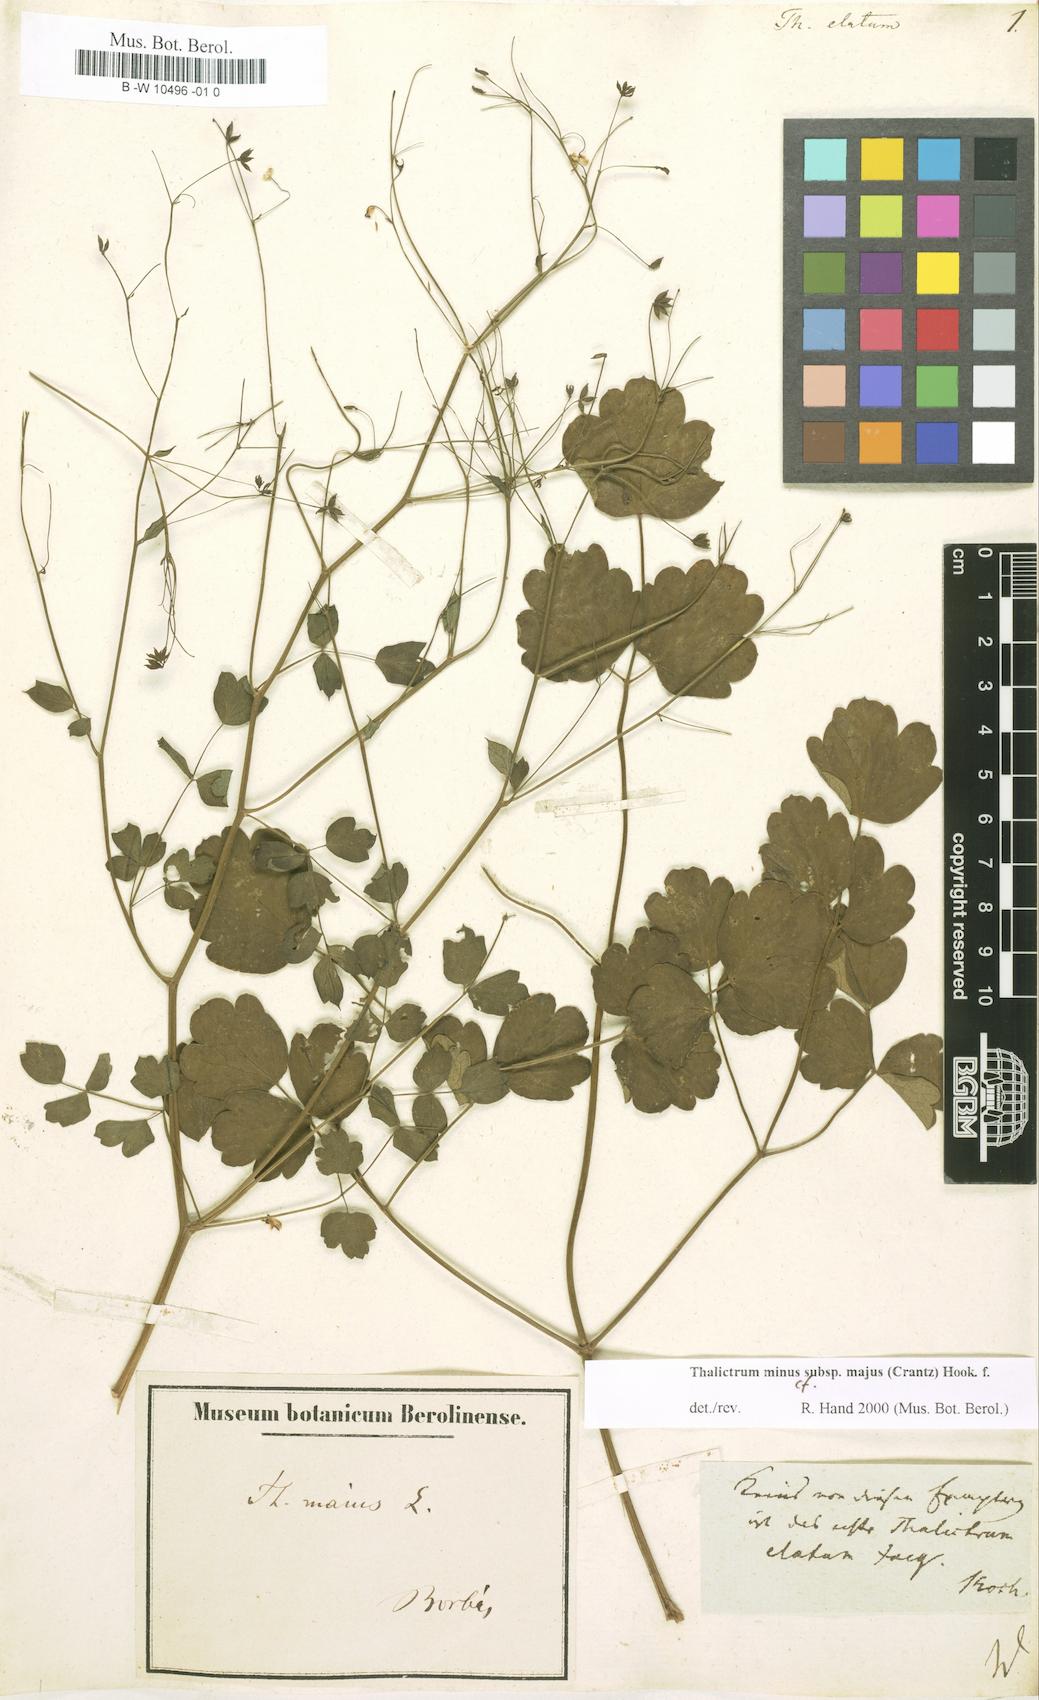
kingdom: Plantae
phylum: Tracheophyta
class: Magnoliopsida
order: Ranunculales
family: Ranunculaceae
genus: Thalictrum
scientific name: Thalictrum minus
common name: Lesser meadow-rue
